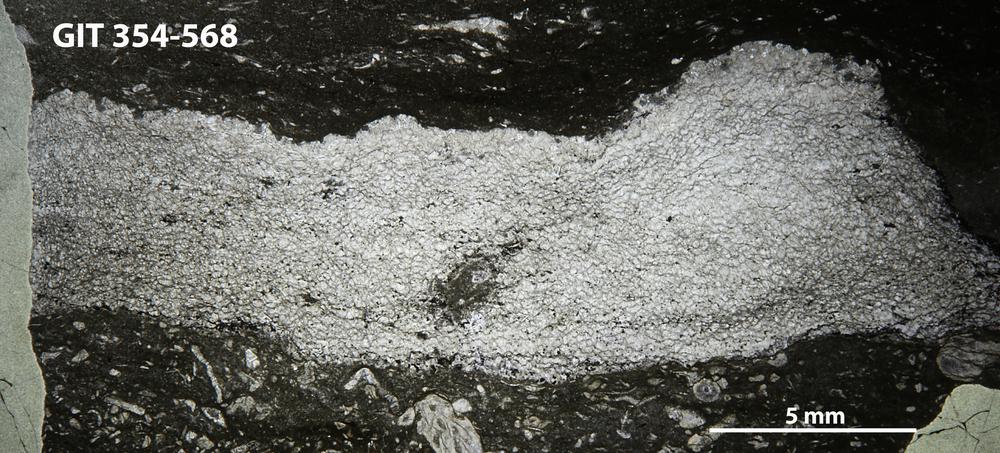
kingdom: Animalia
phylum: Porifera
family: Actinodictyidae
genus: Camptodictyon
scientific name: Camptodictyon
